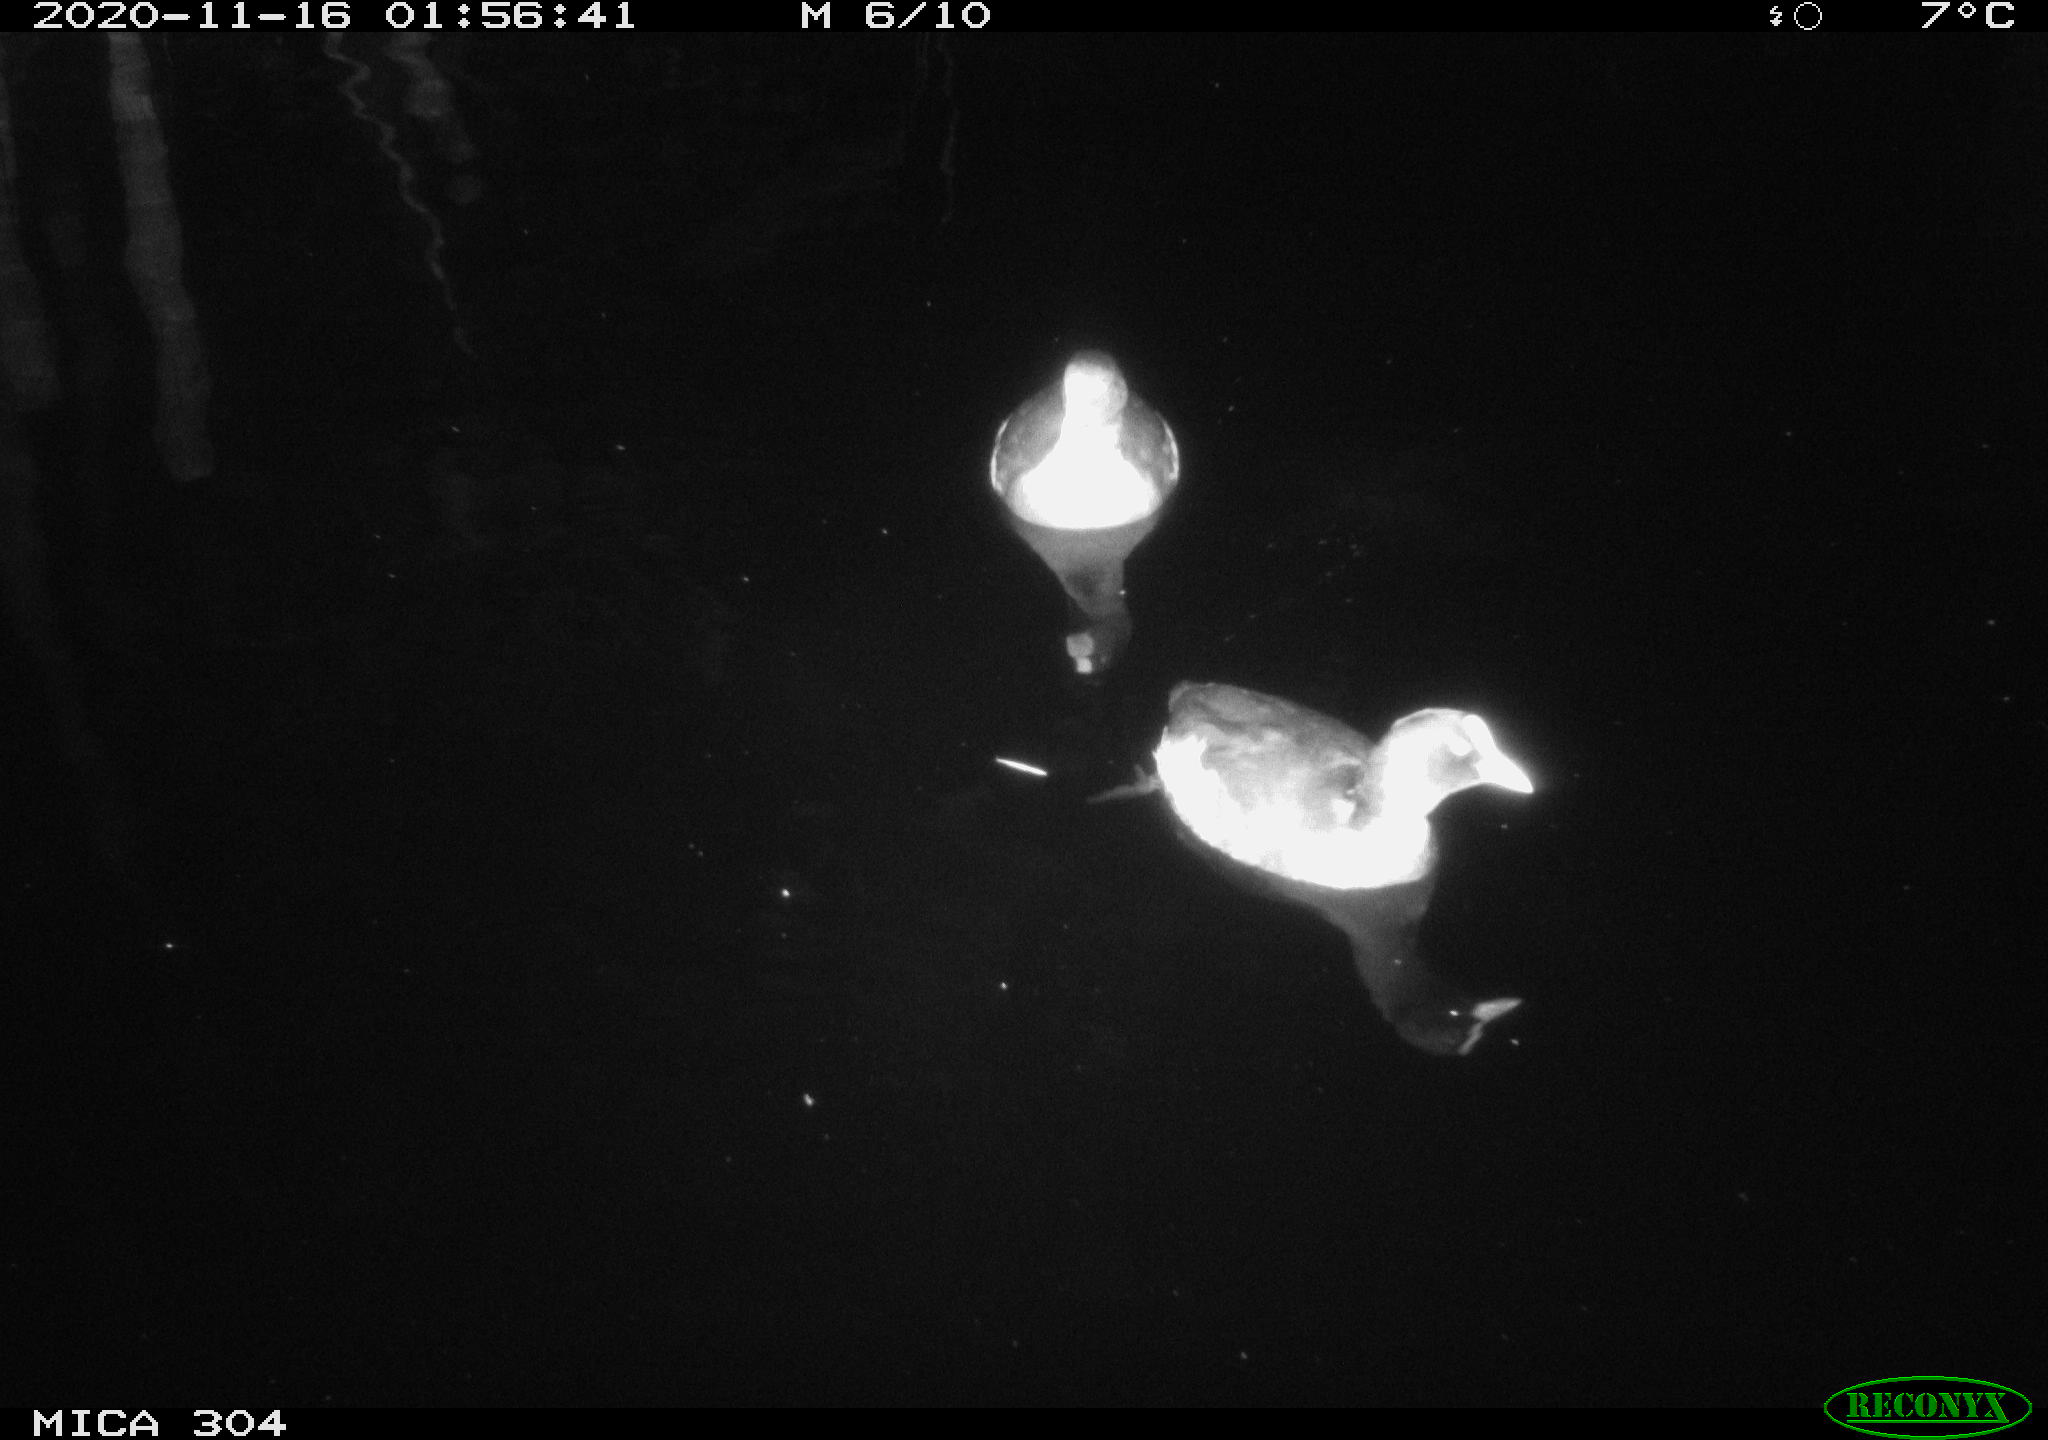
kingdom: Animalia
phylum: Chordata
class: Aves
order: Gruiformes
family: Rallidae
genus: Gallinula
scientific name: Gallinula chloropus
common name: Common moorhen
